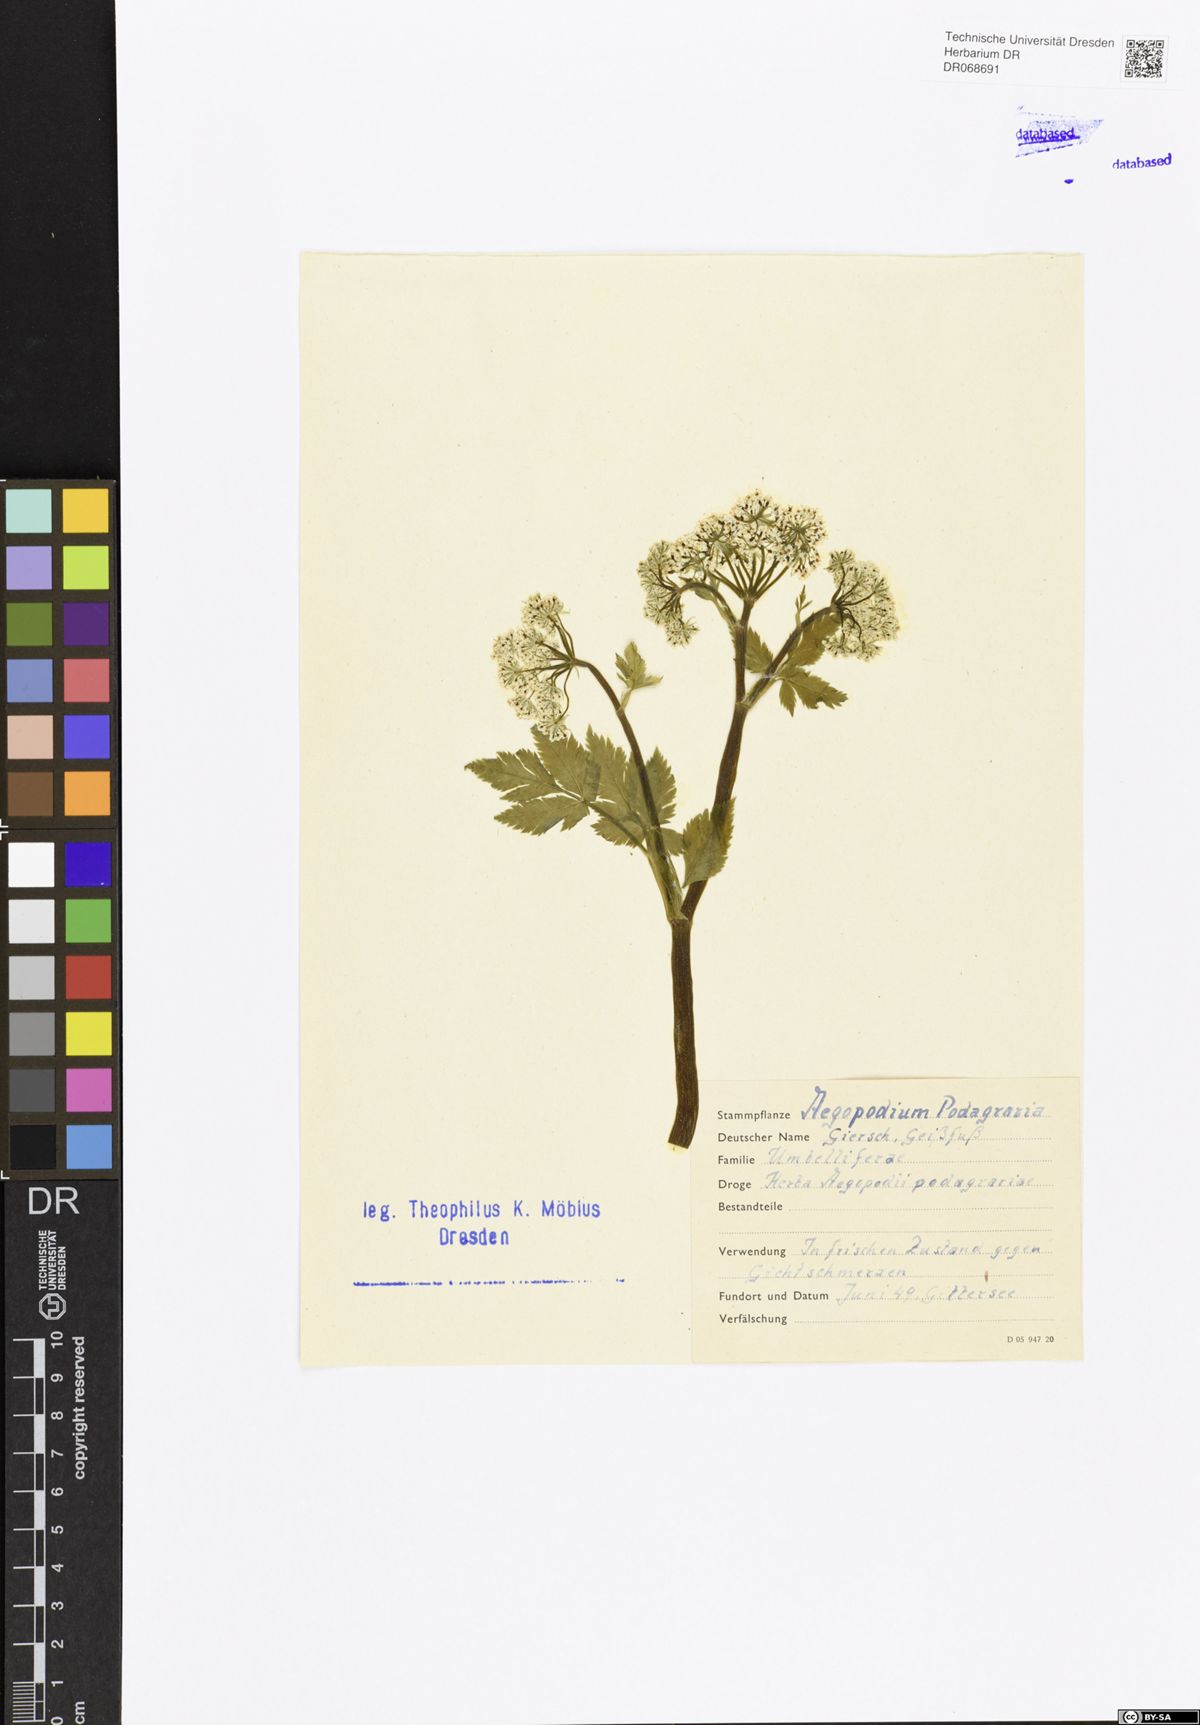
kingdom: Plantae
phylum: Tracheophyta
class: Magnoliopsida
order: Apiales
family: Apiaceae
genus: Aegopodium
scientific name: Aegopodium podagraria
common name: Ground-elder
